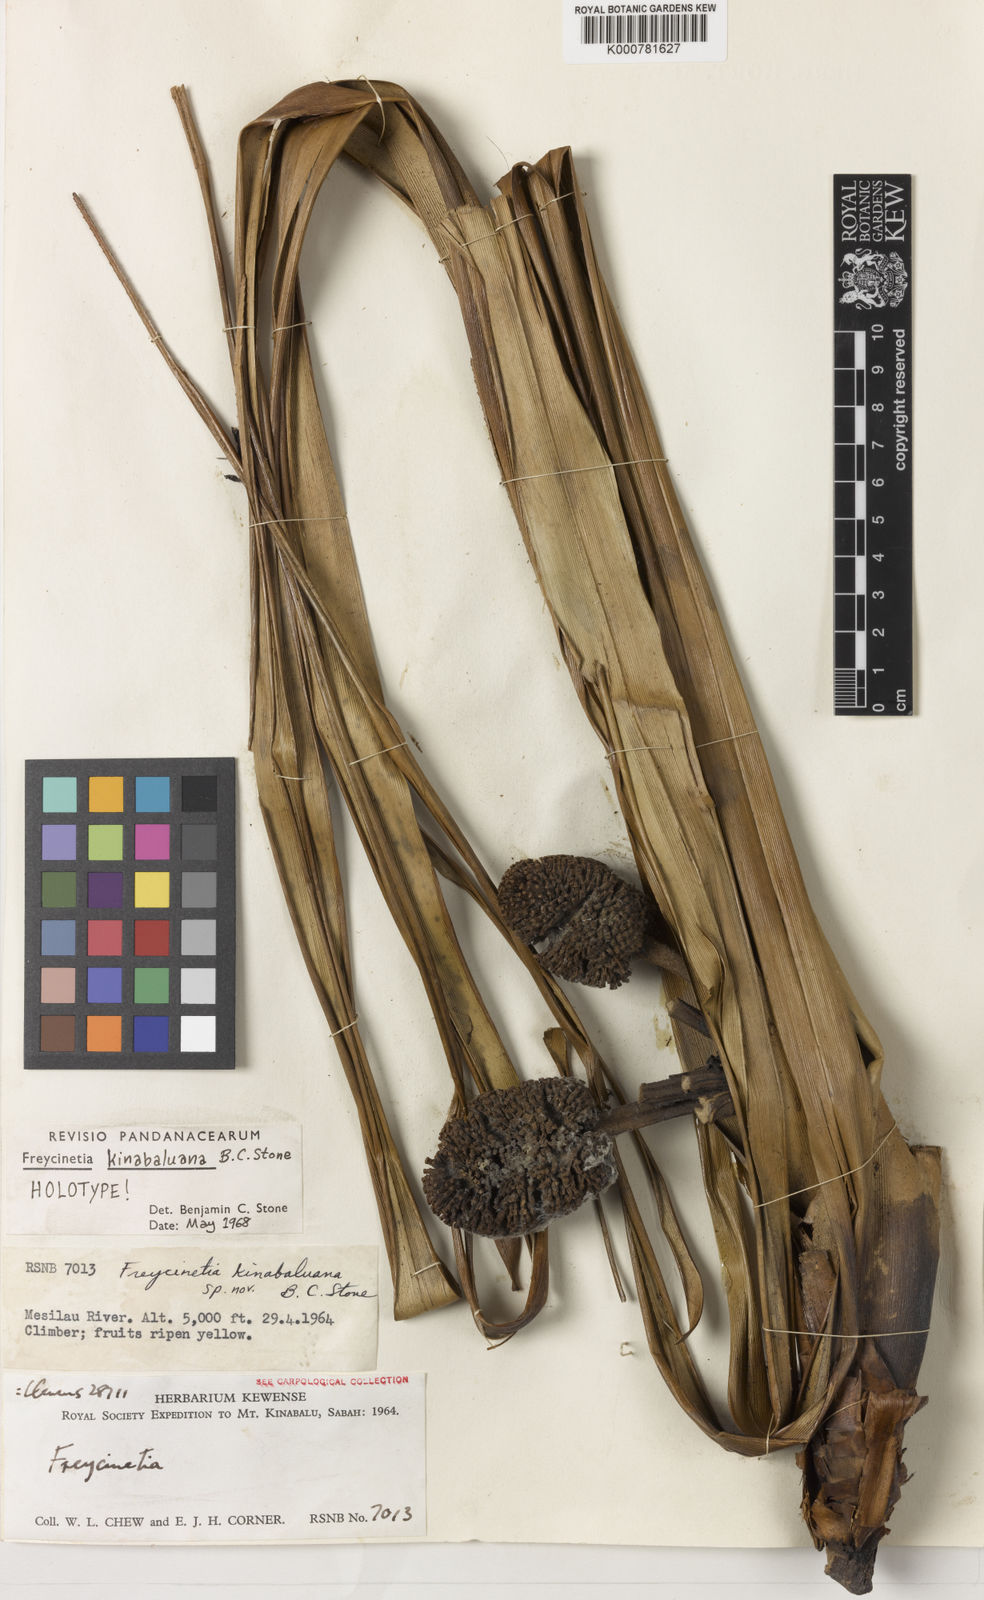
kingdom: Plantae
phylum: Tracheophyta
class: Liliopsida
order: Pandanales
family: Pandanaceae
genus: Freycinetia
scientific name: Freycinetia kinabaluana
